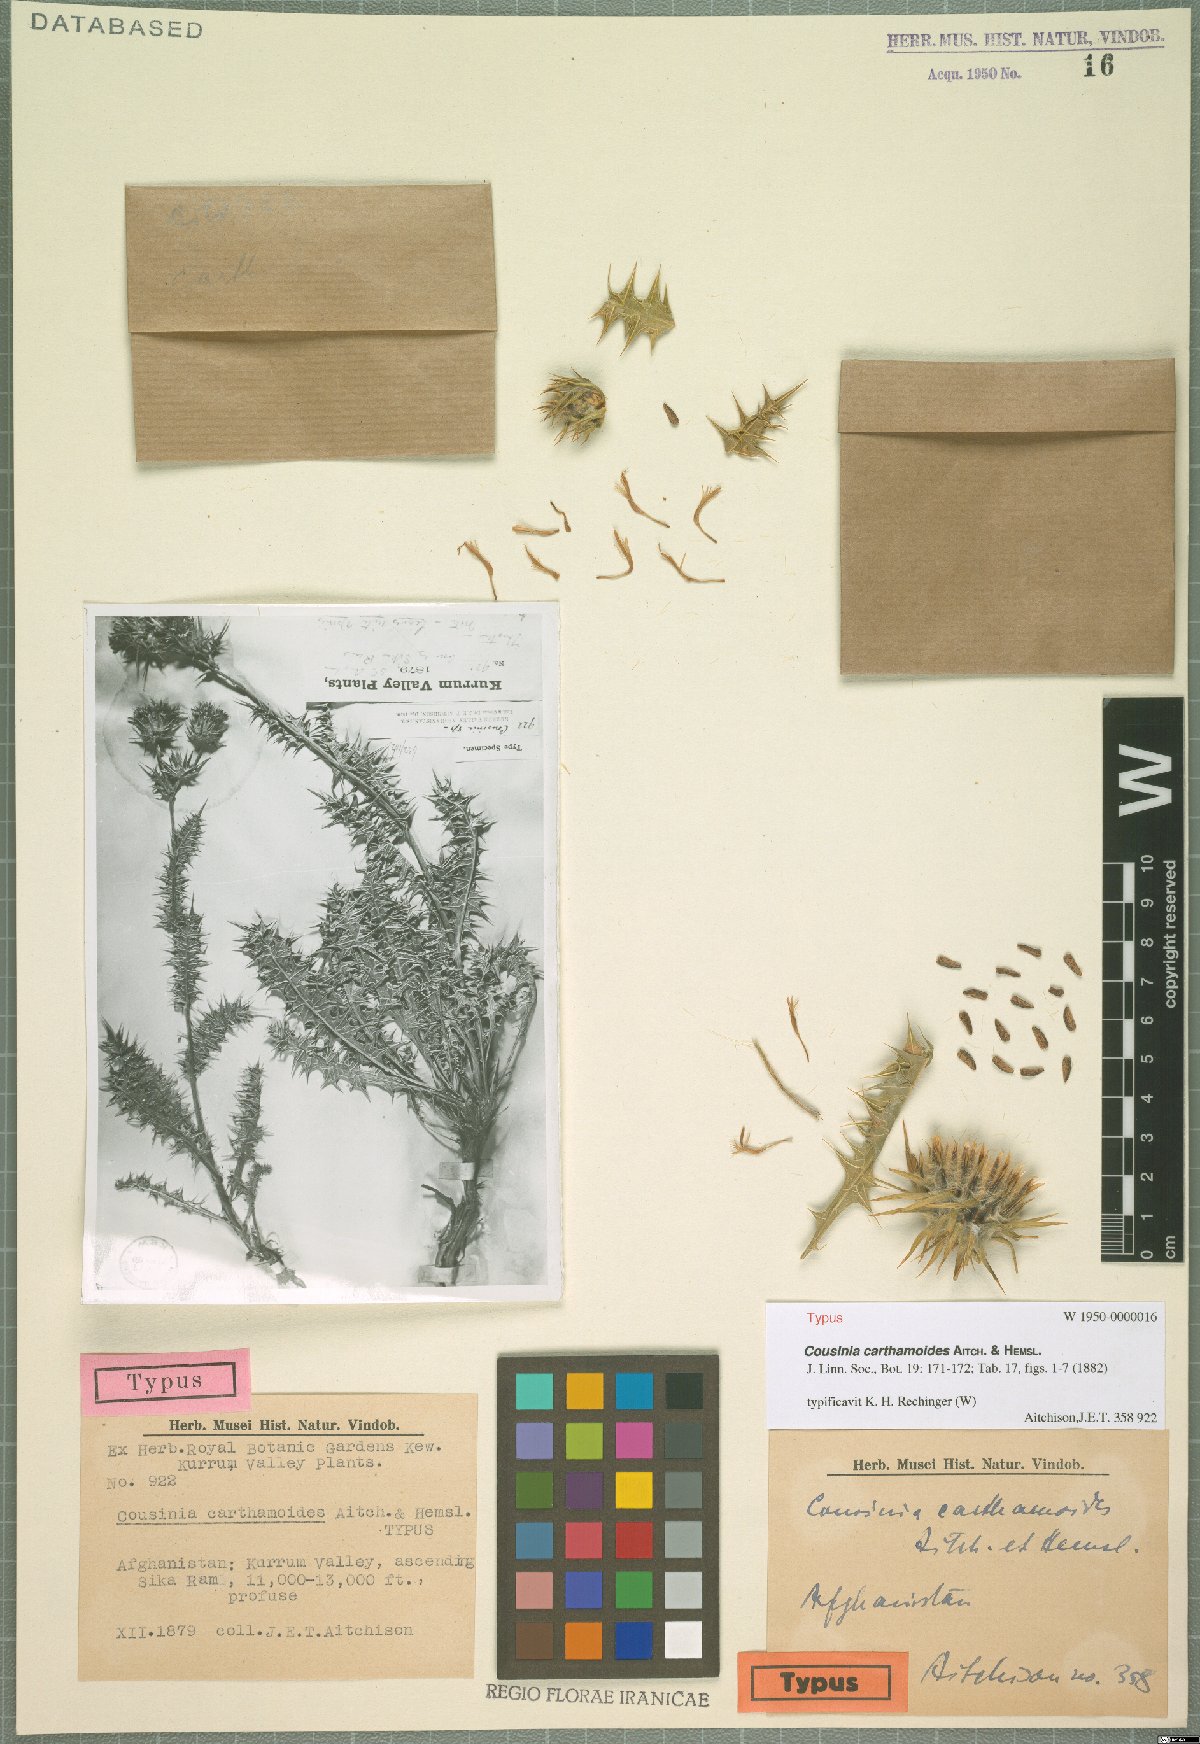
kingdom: Plantae
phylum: Tracheophyta
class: Magnoliopsida
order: Asterales
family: Asteraceae
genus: Cousinia
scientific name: Cousinia carthamoides
